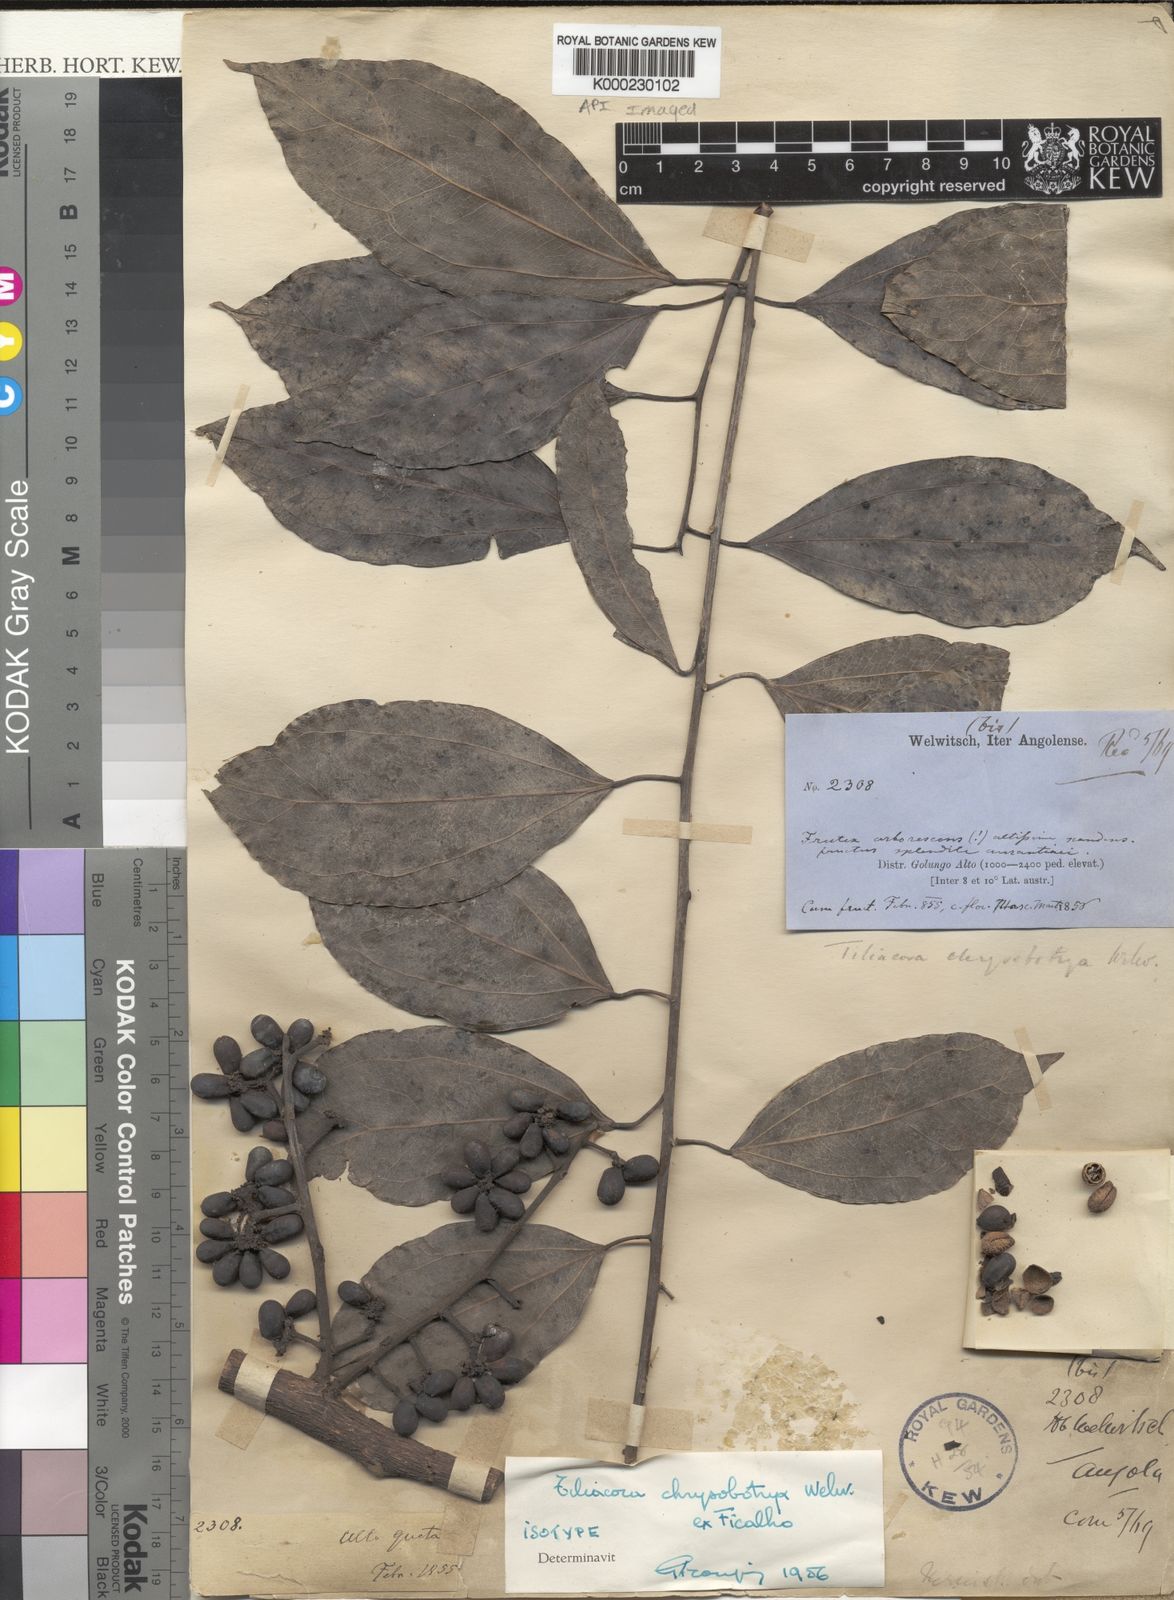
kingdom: Plantae
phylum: Tracheophyta
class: Magnoliopsida
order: Ranunculales
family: Menispermaceae
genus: Tiliacora
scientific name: Tiliacora
